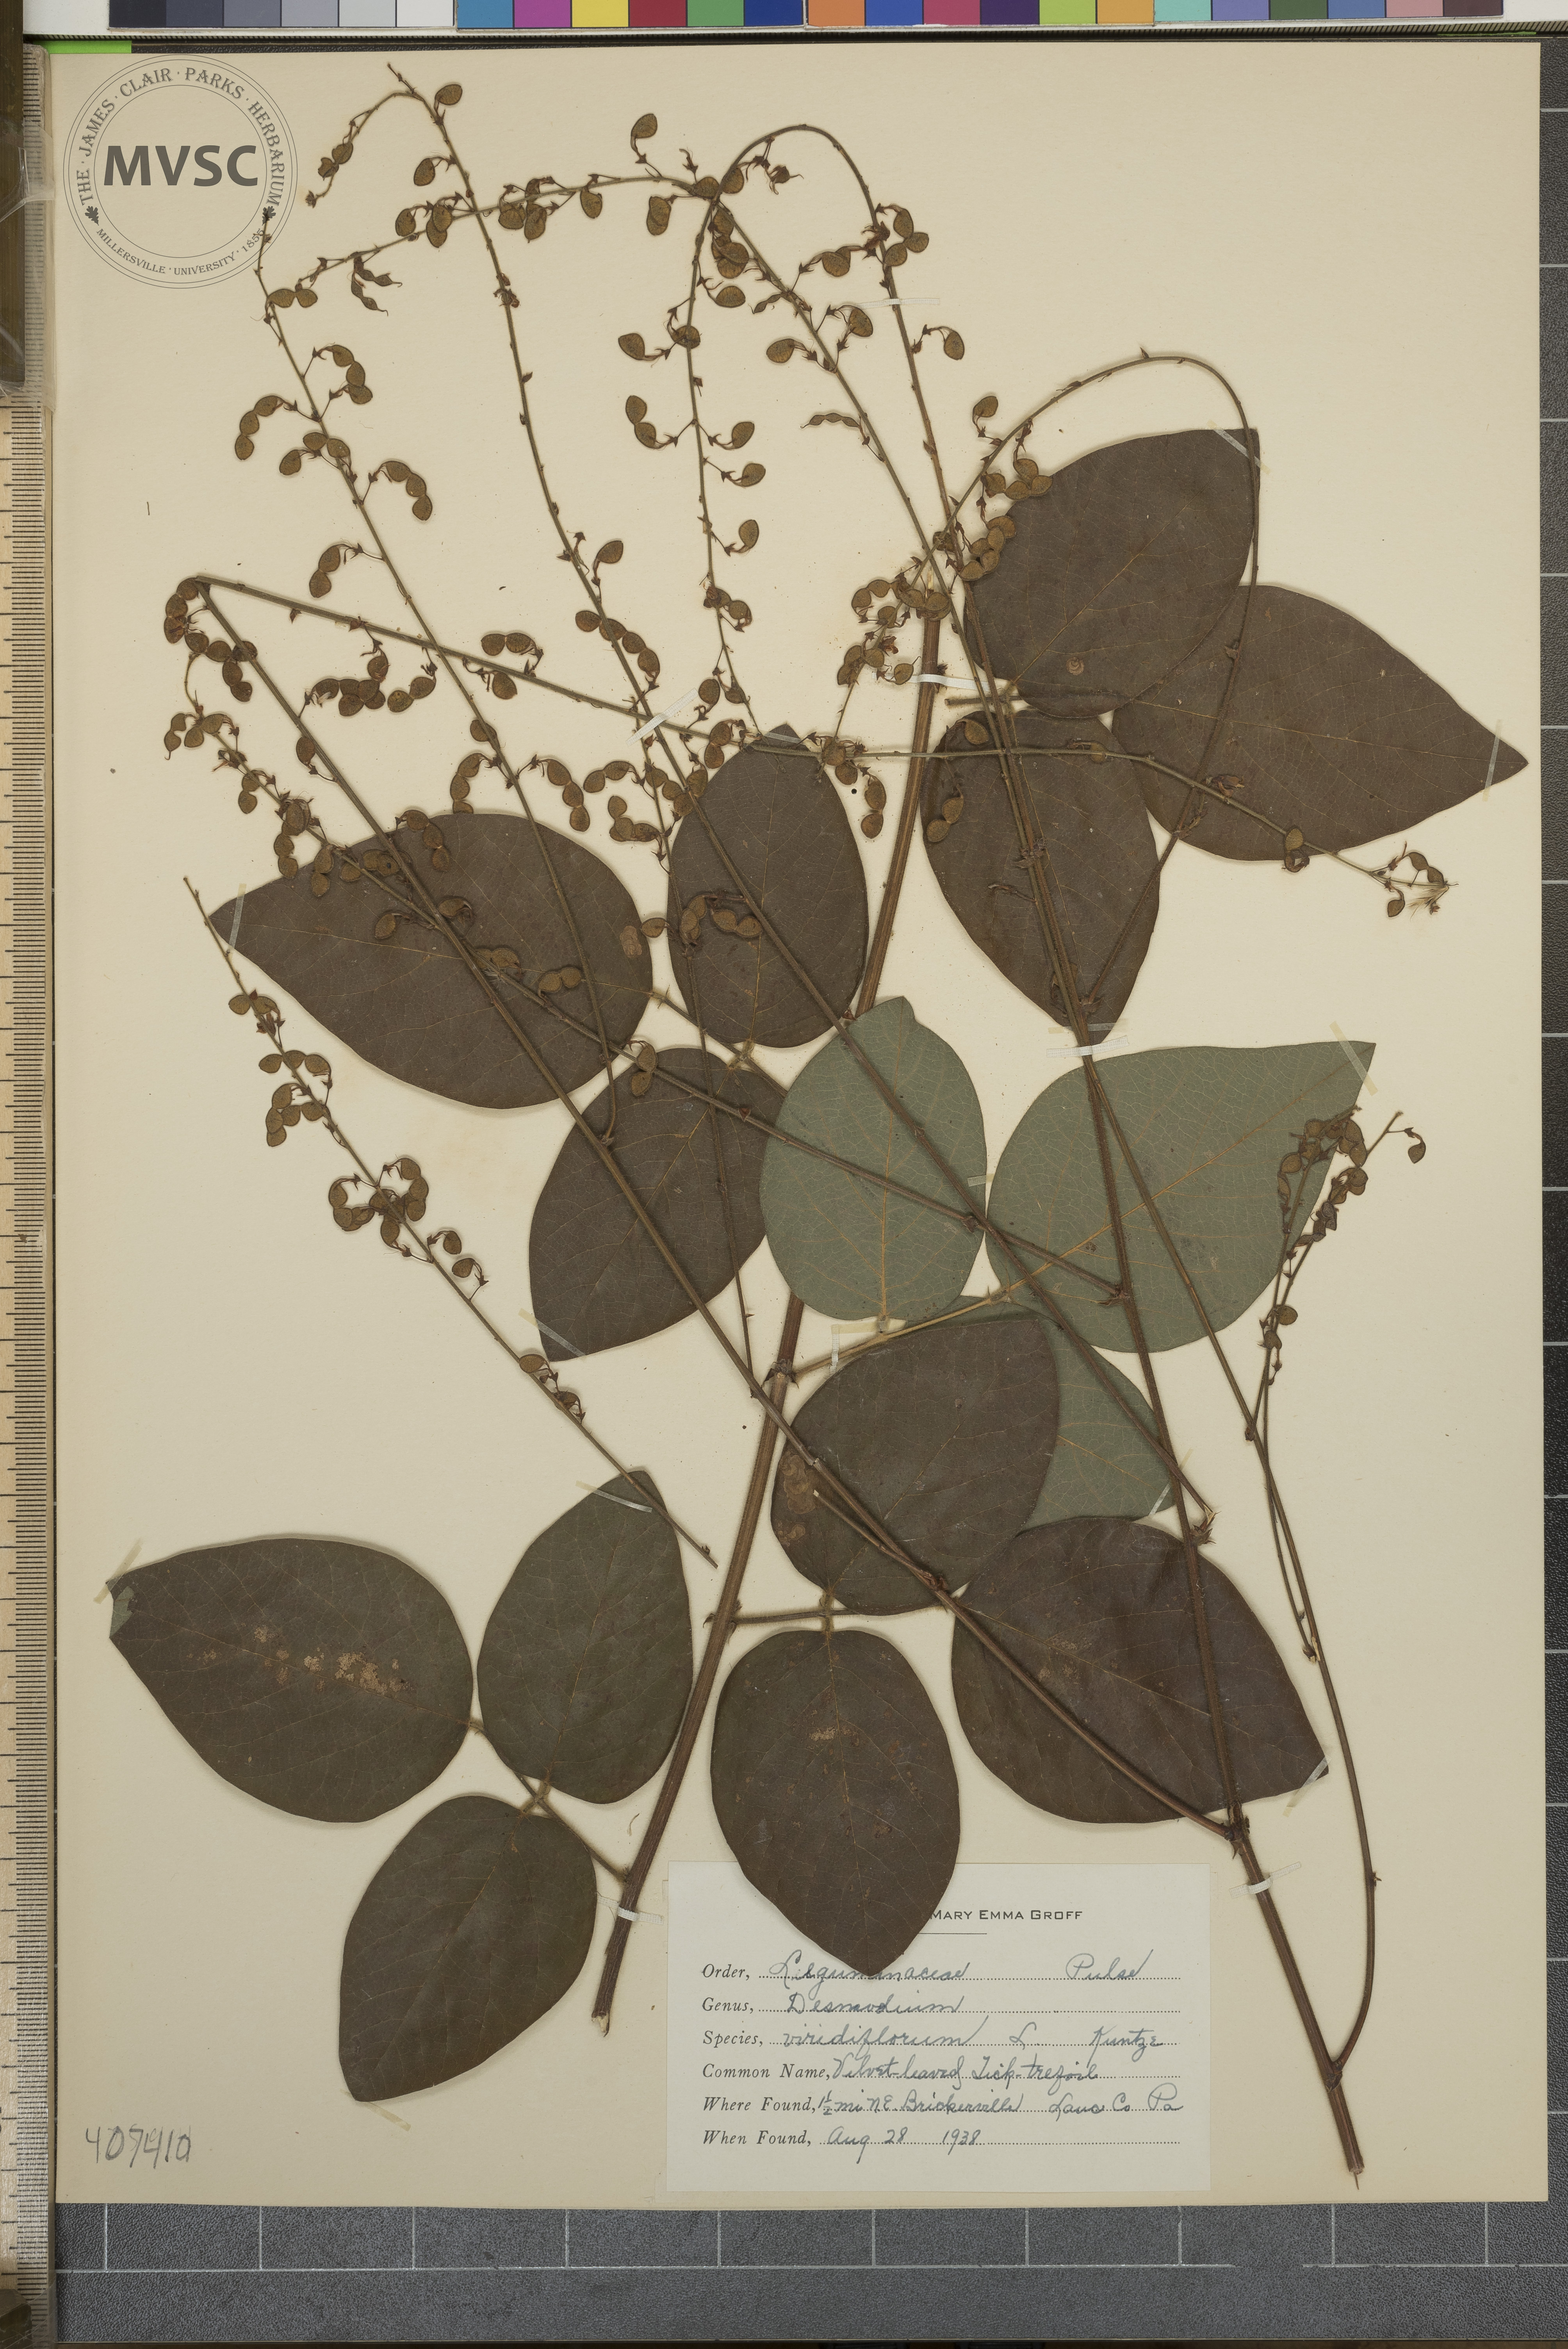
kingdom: Plantae
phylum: Tracheophyta
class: Magnoliopsida
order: Fabales
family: Fabaceae
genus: Desmodium
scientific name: Desmodium viridiflorum
